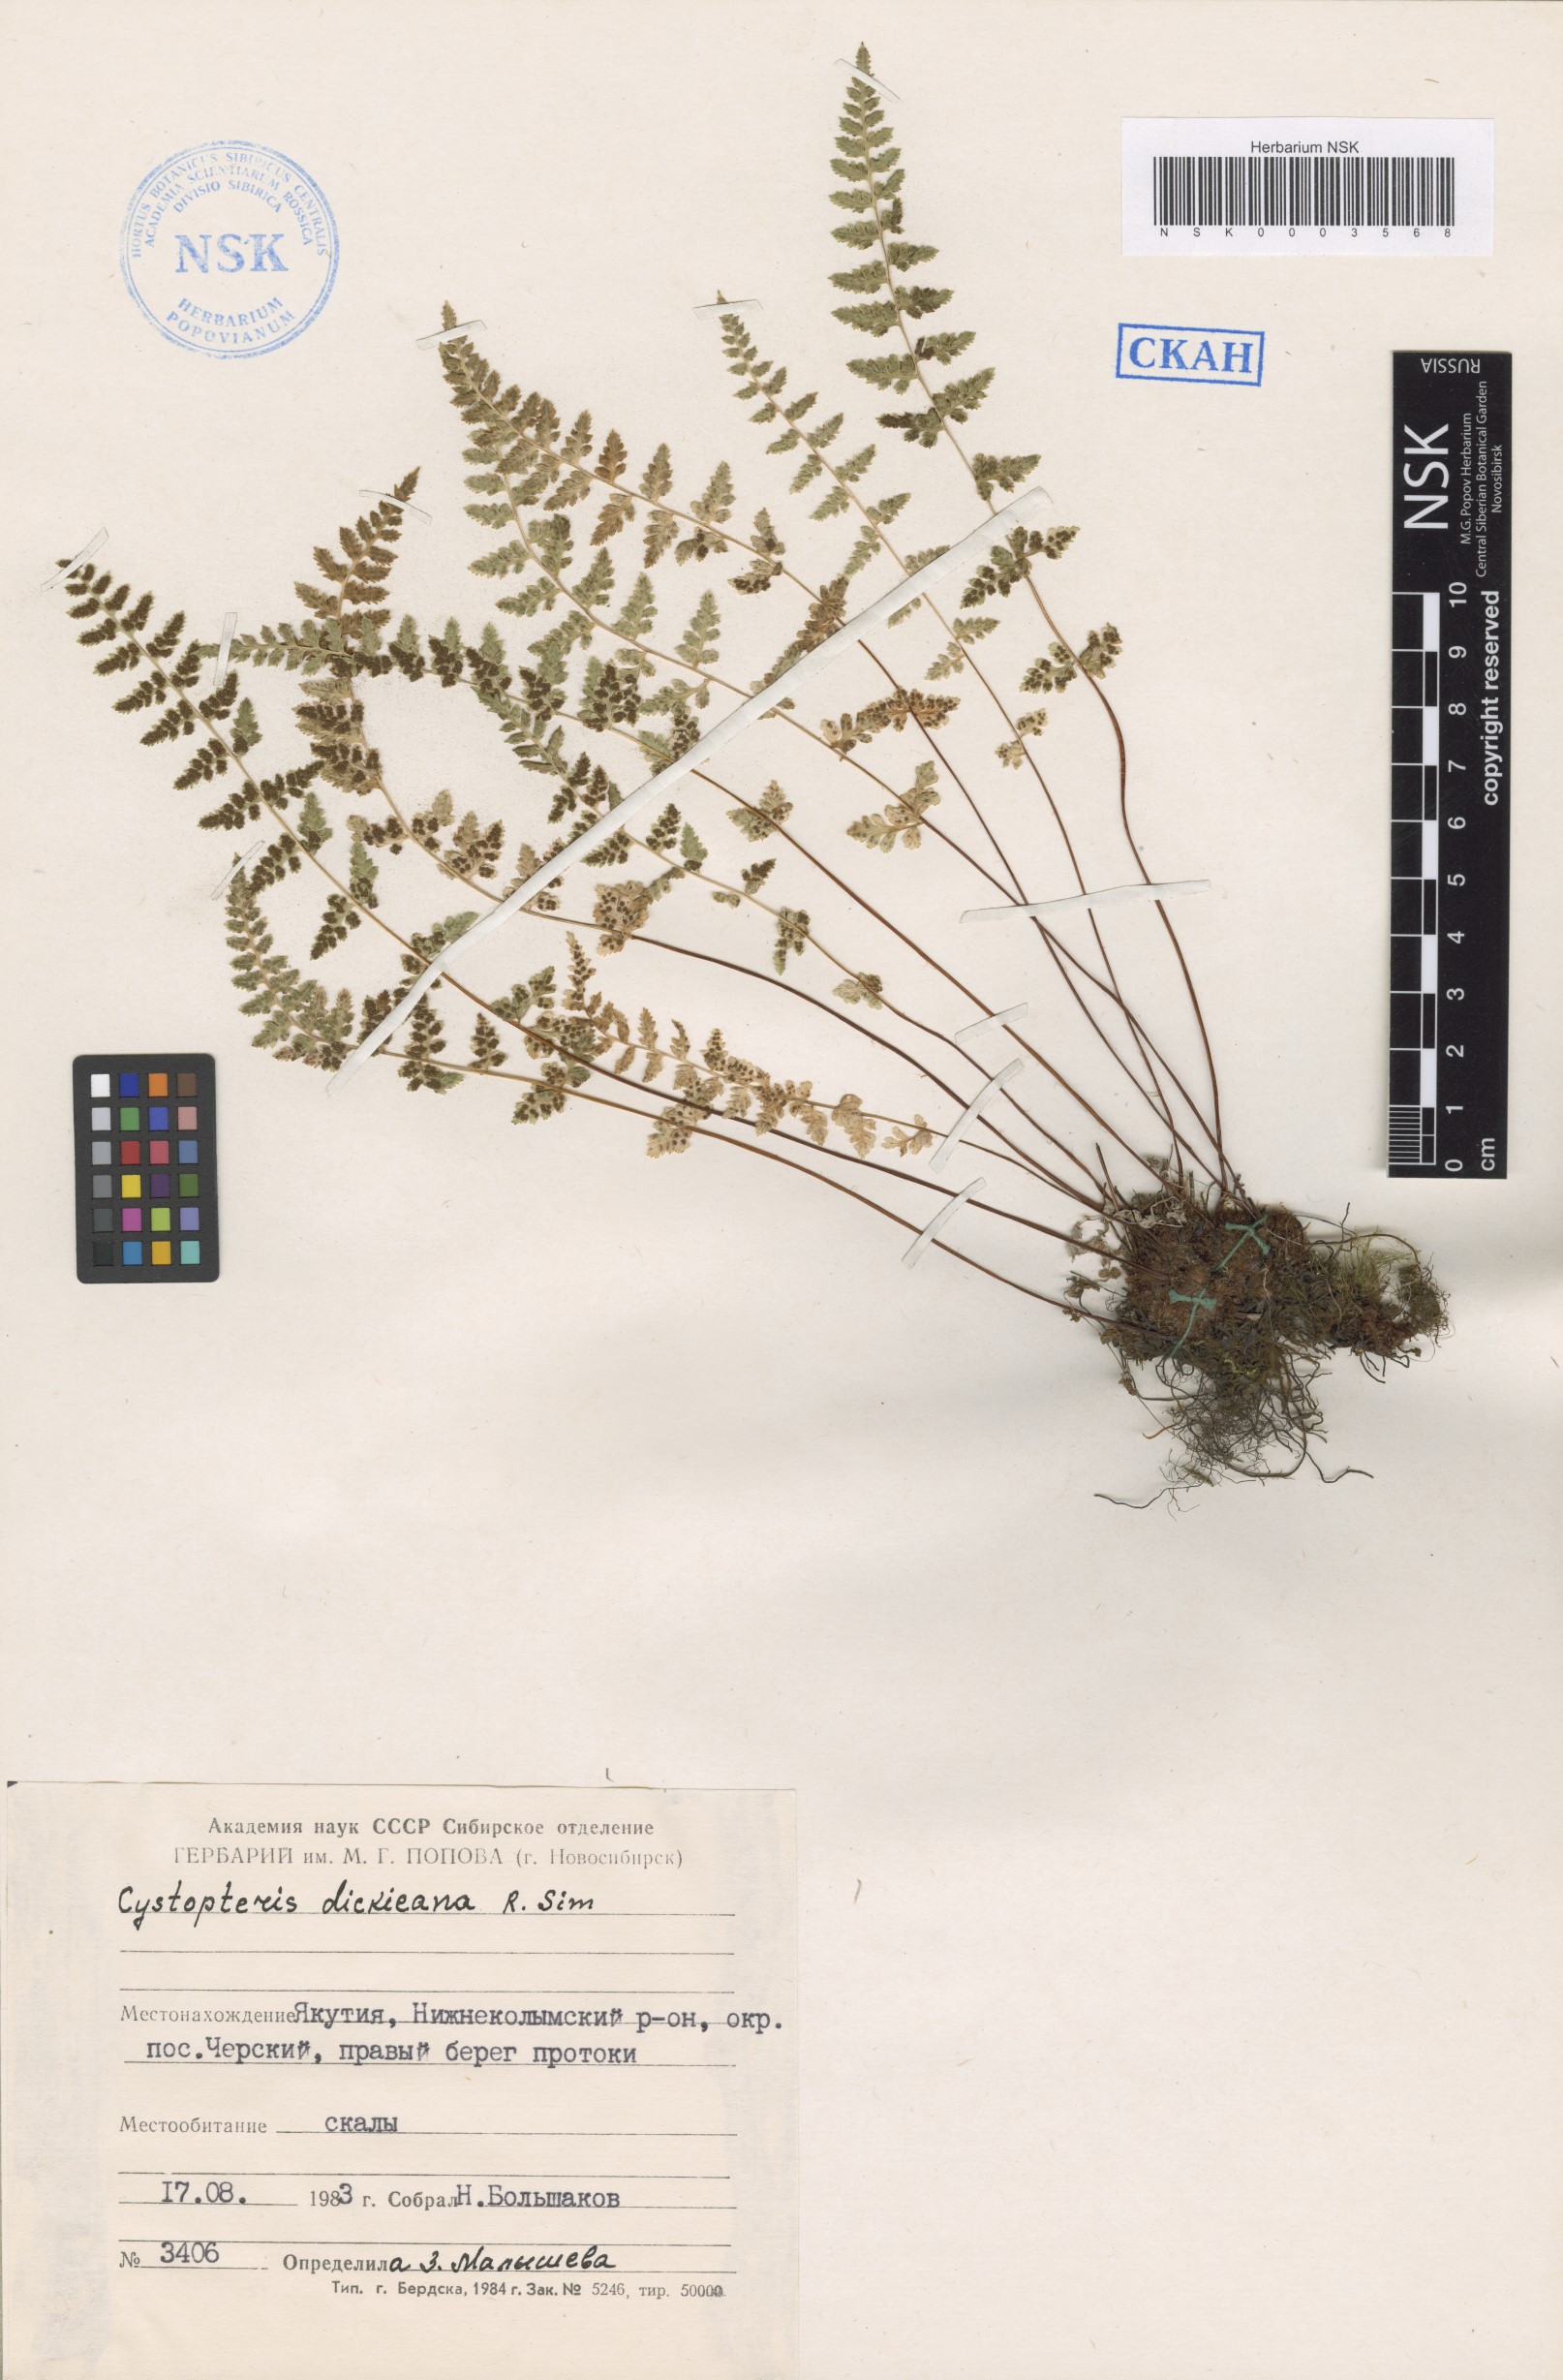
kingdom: Plantae
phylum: Tracheophyta
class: Polypodiopsida
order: Polypodiales
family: Cystopteridaceae
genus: Cystopteris
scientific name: Cystopteris dickieana
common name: Dickie's bladder-fern
